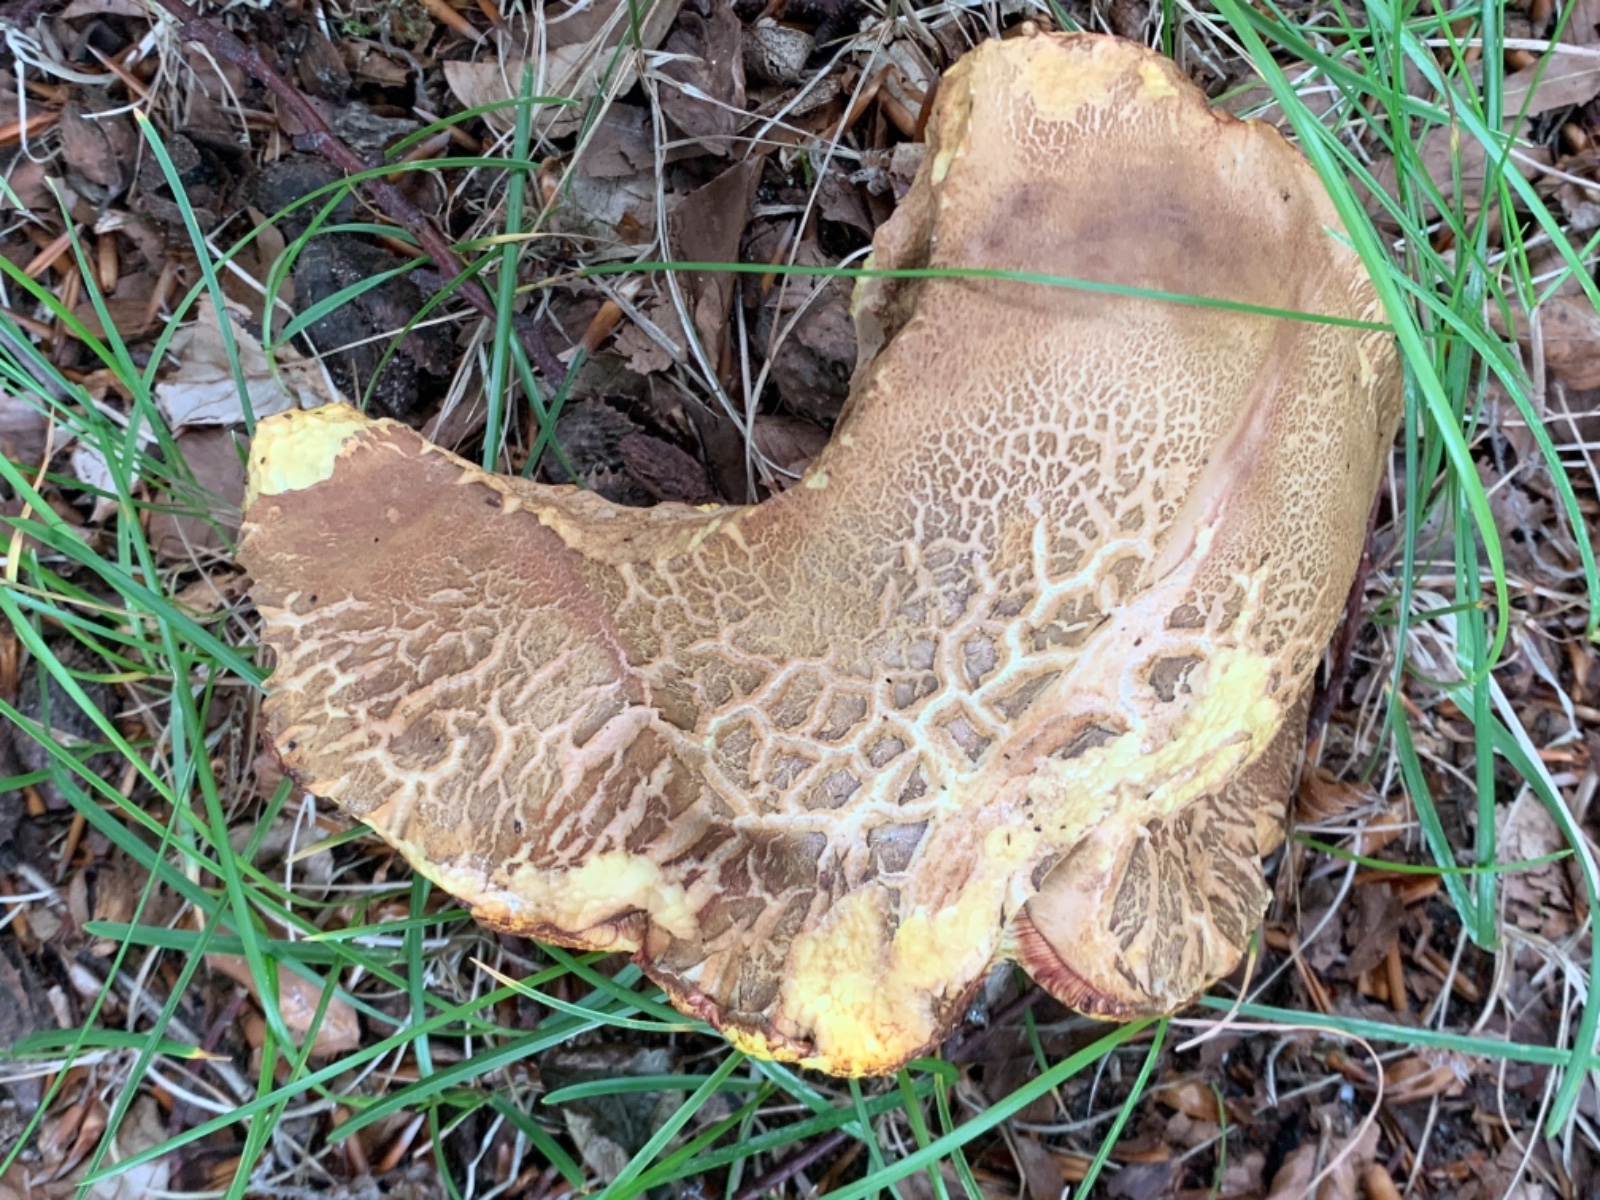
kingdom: Fungi
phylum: Basidiomycota
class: Agaricomycetes
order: Boletales
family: Boletaceae
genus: Butyriboletus
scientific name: Butyriboletus appendiculatus
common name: tenstokket rørhat
